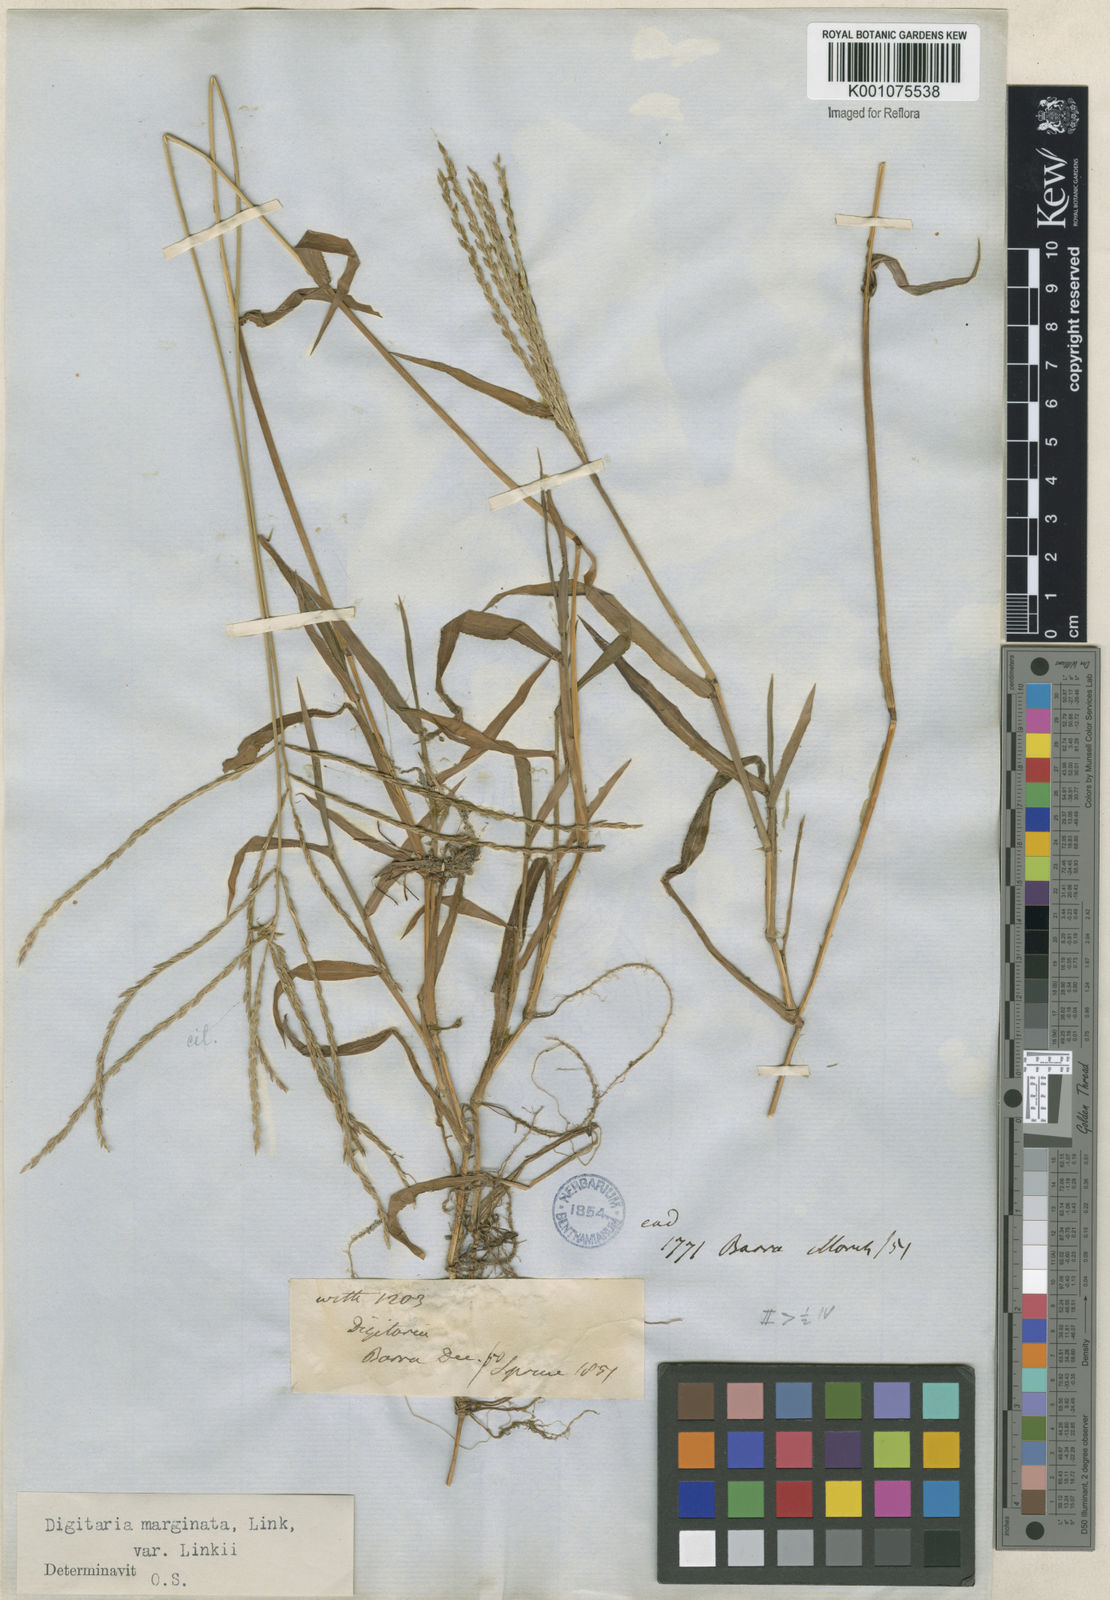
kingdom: Plantae
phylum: Tracheophyta
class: Liliopsida
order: Poales
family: Poaceae
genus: Digitaria
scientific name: Digitaria ciliaris
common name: Tropical finger-grass
